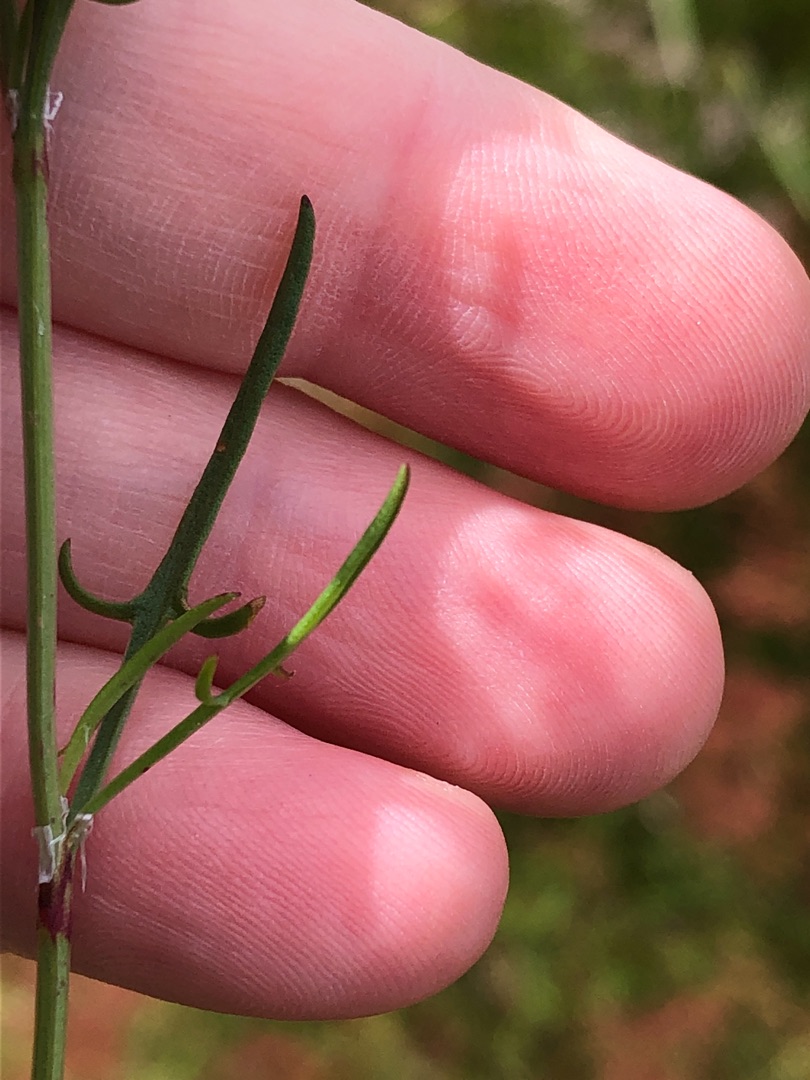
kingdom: Plantae
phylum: Tracheophyta
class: Magnoliopsida
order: Caryophyllales
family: Polygonaceae
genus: Rumex
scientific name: Rumex acetosella
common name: Finbladet rødknæ
